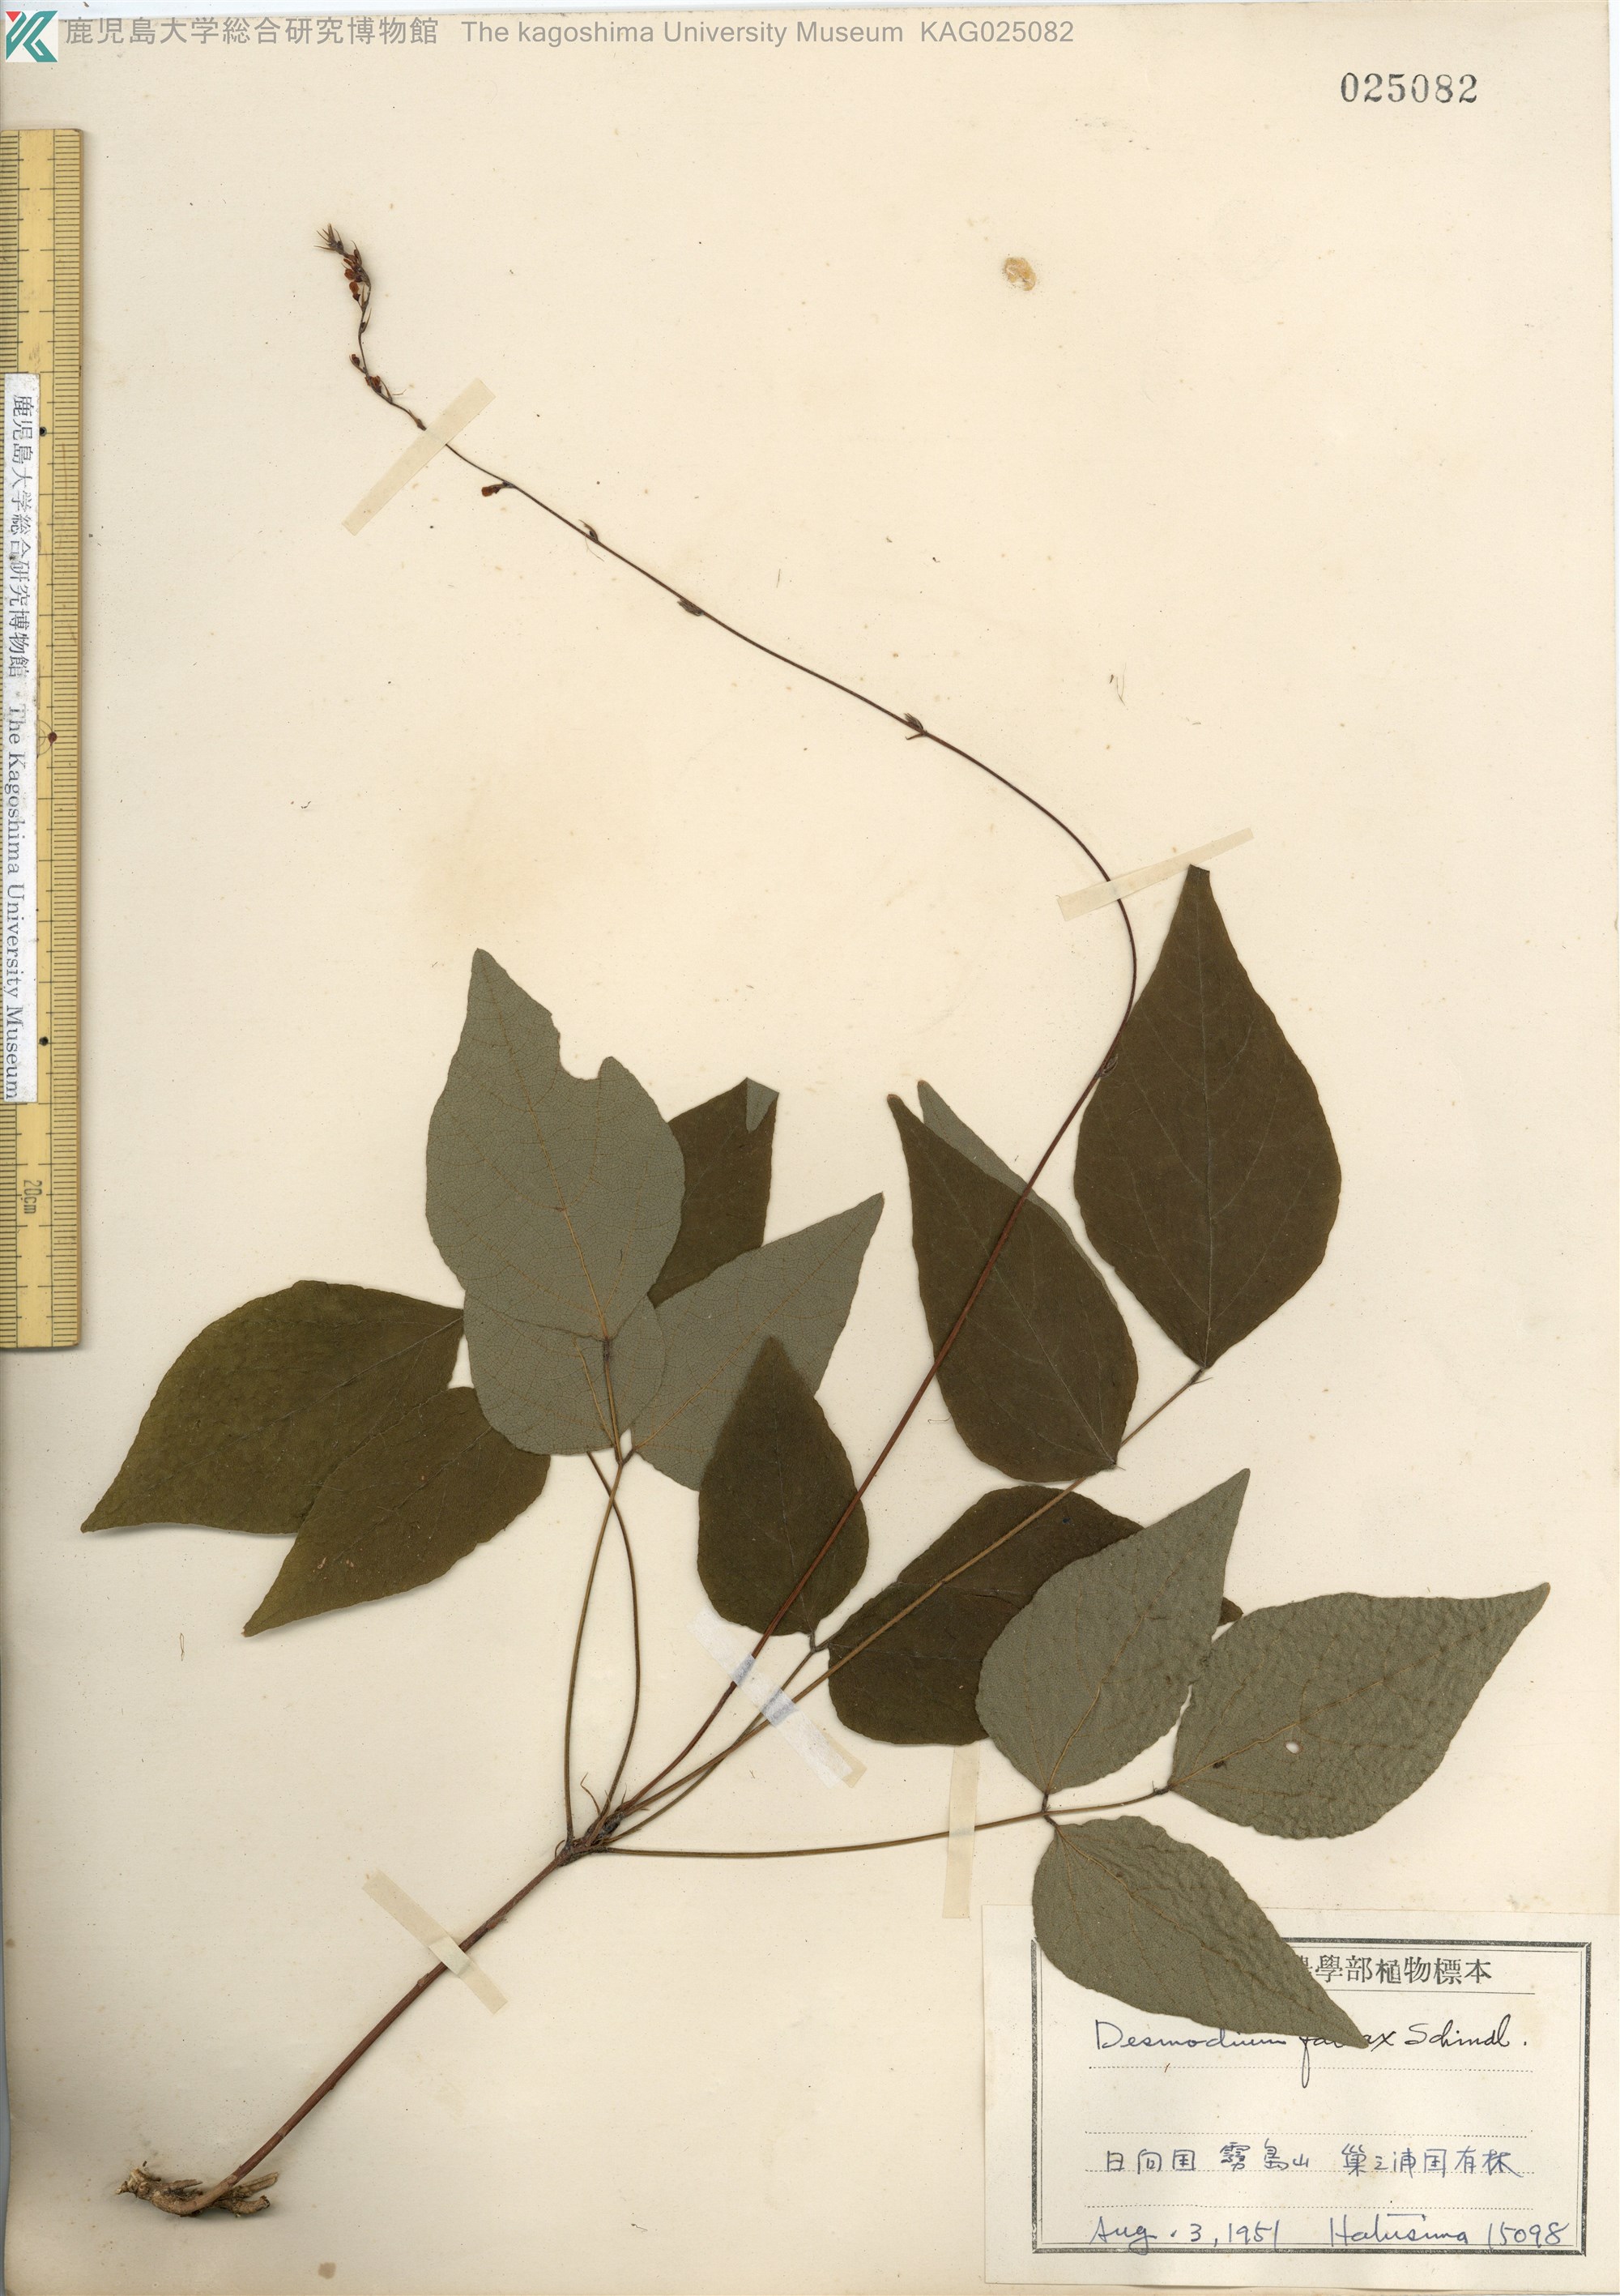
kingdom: Plantae
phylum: Tracheophyta
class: Magnoliopsida
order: Fabales
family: Fabaceae
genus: Hylodesmum
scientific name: Hylodesmum podocarpum
